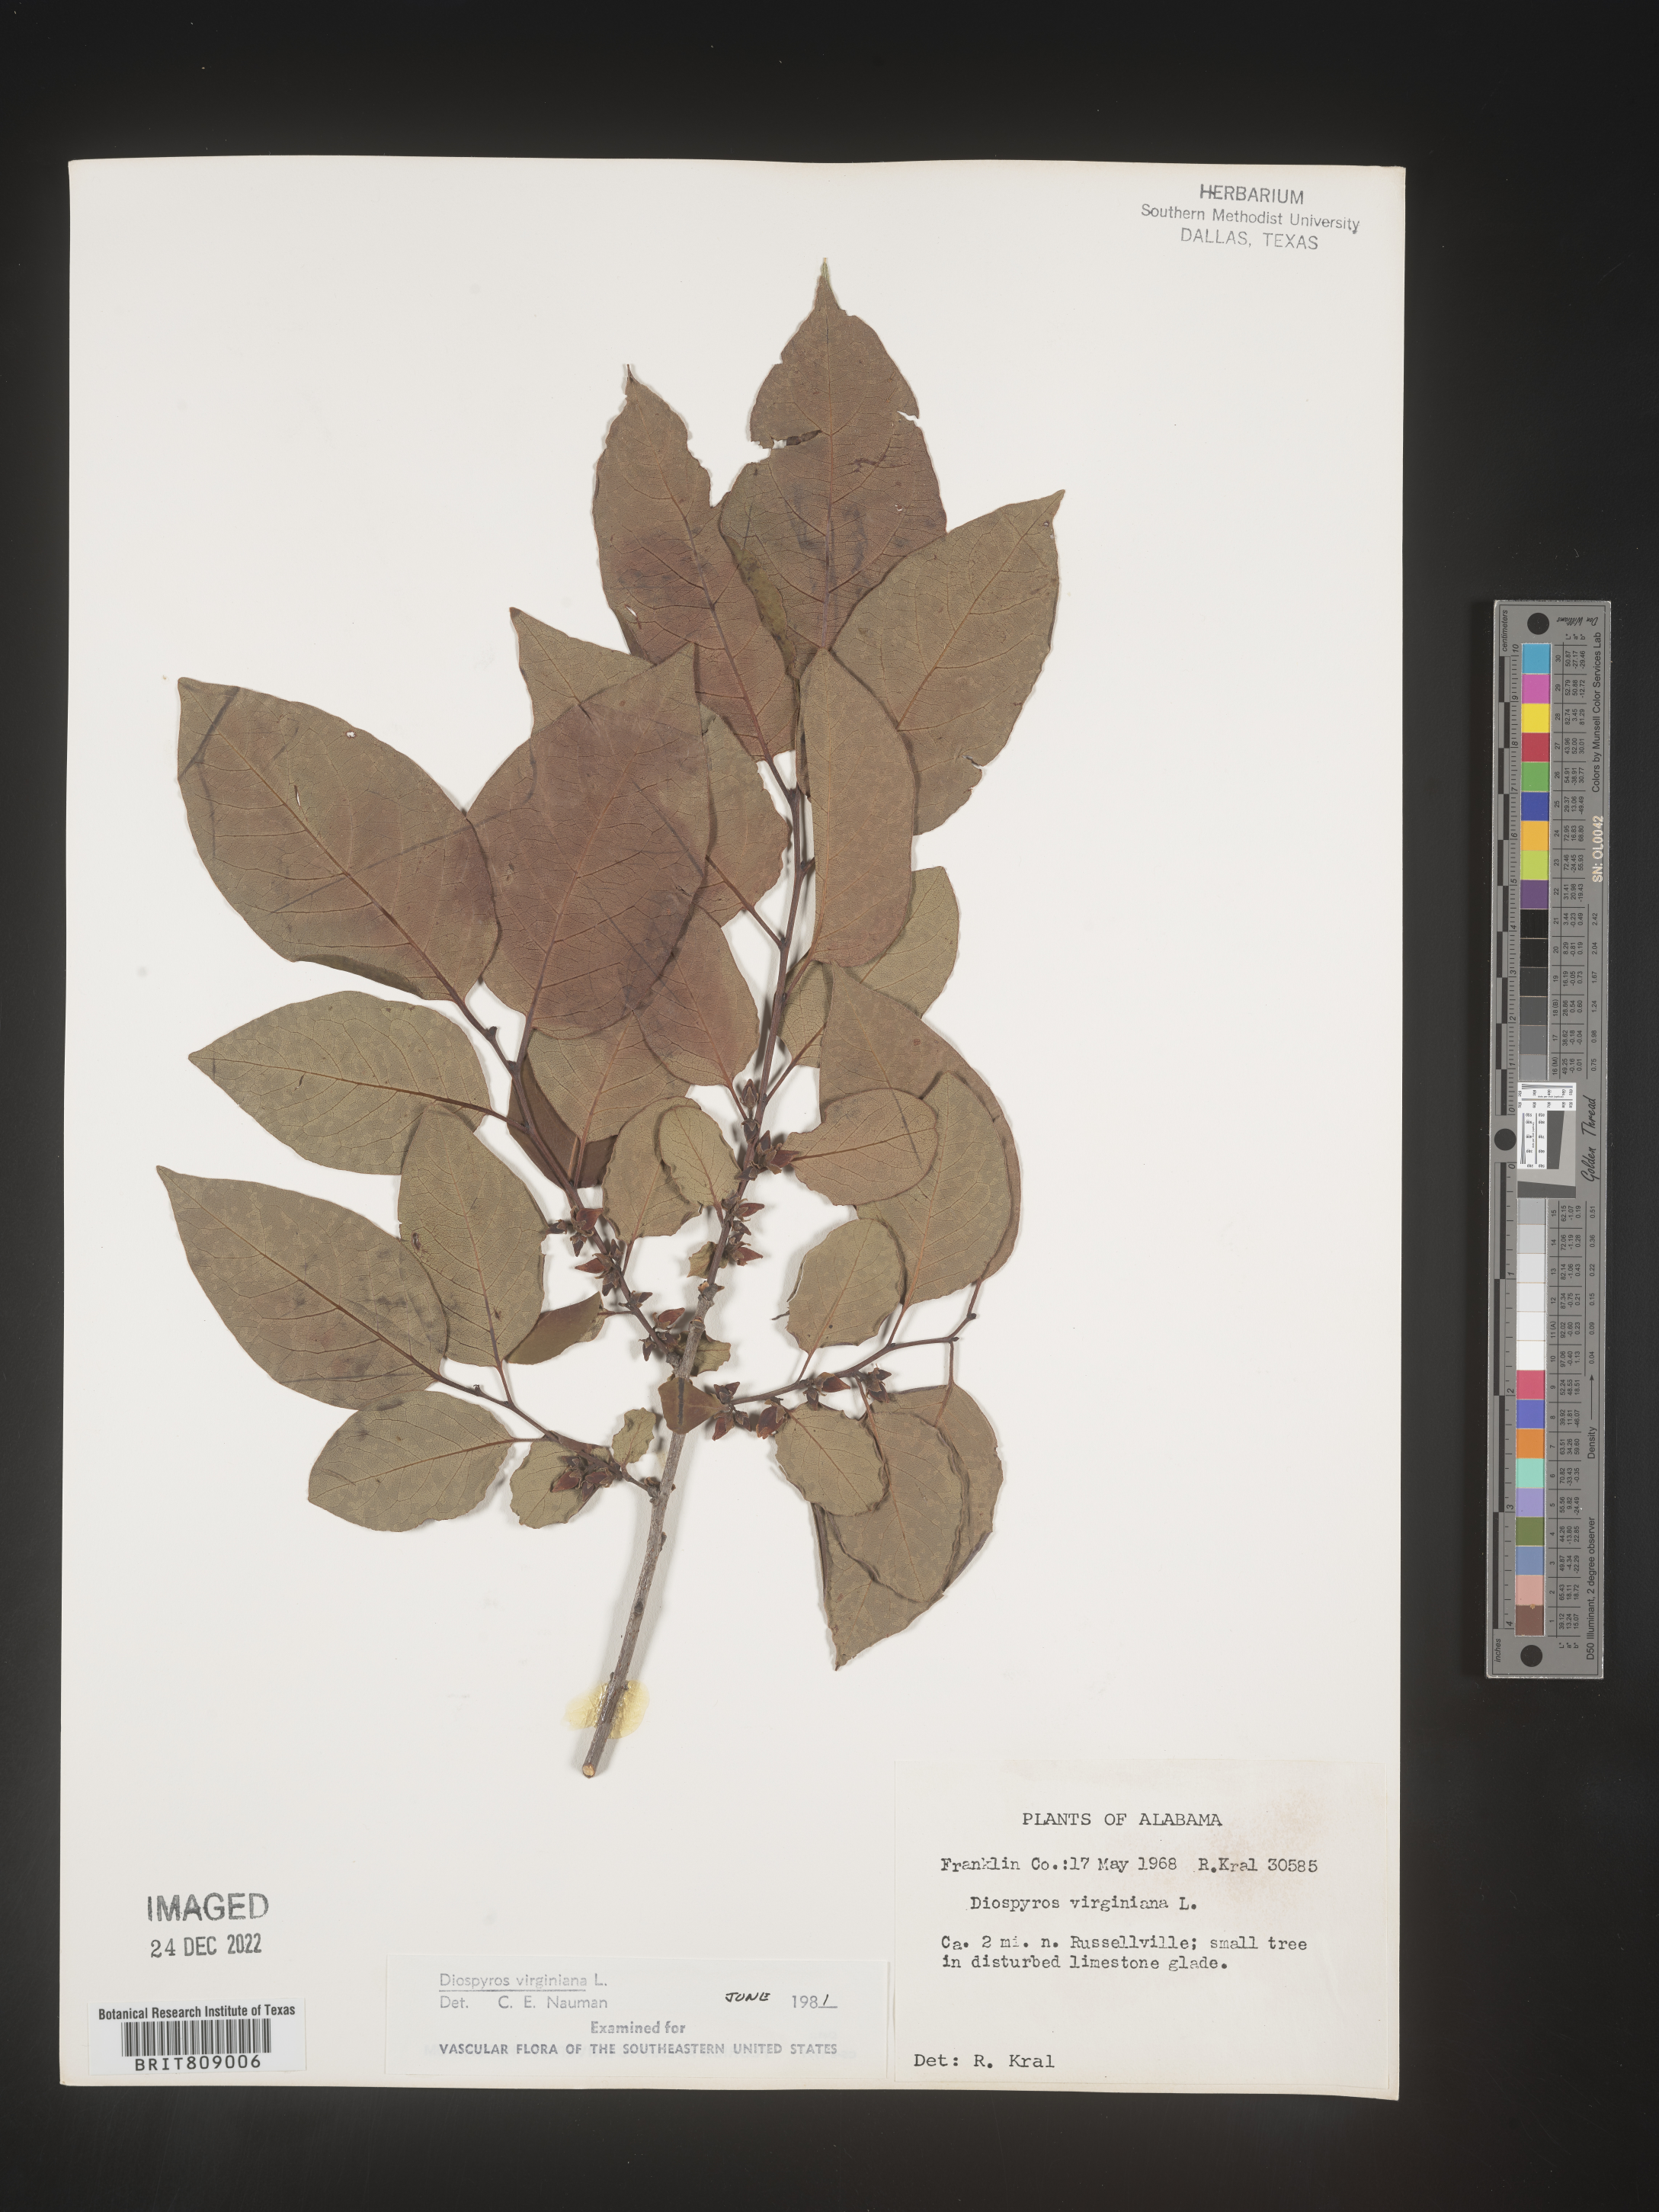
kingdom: Plantae
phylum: Tracheophyta
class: Magnoliopsida
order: Ericales
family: Ebenaceae
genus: Diospyros
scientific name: Diospyros virginiana
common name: Persimmon
